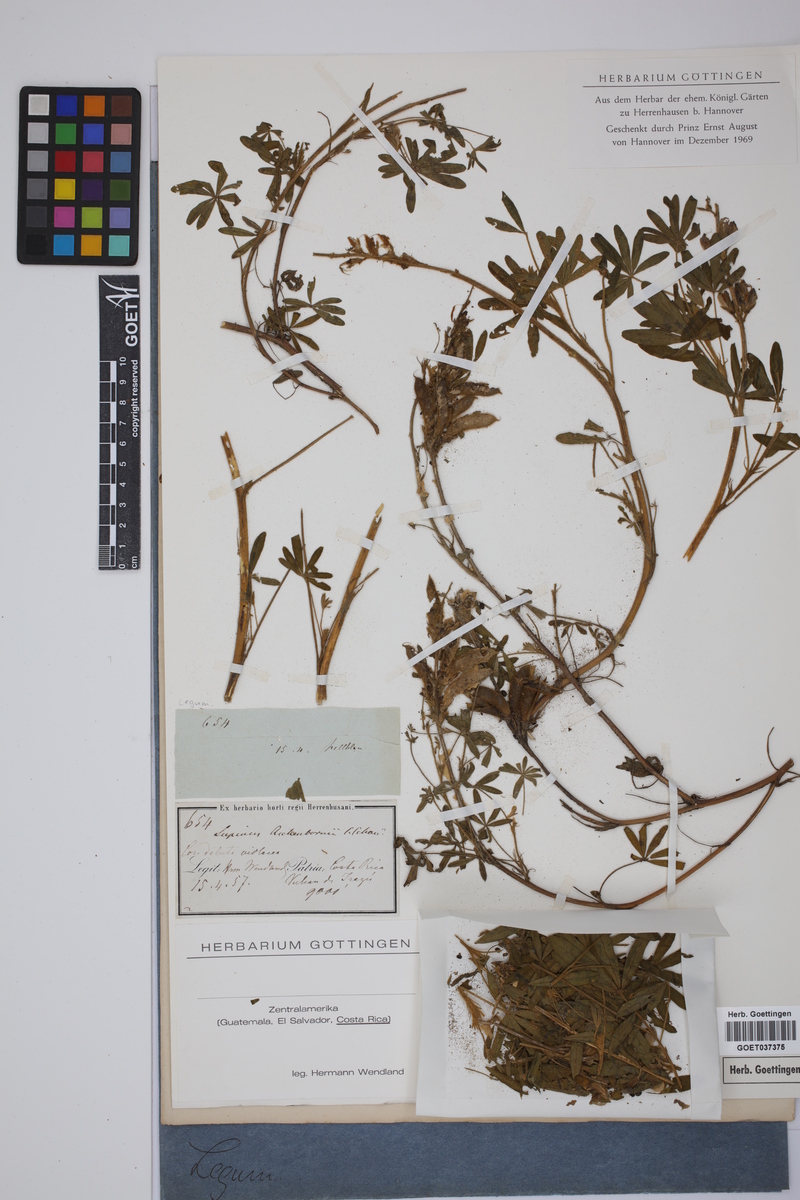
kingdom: Plantae
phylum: Tracheophyta
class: Magnoliopsida
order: Fabales
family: Fabaceae
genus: Lupinus
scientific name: Lupinus aschenbornii
